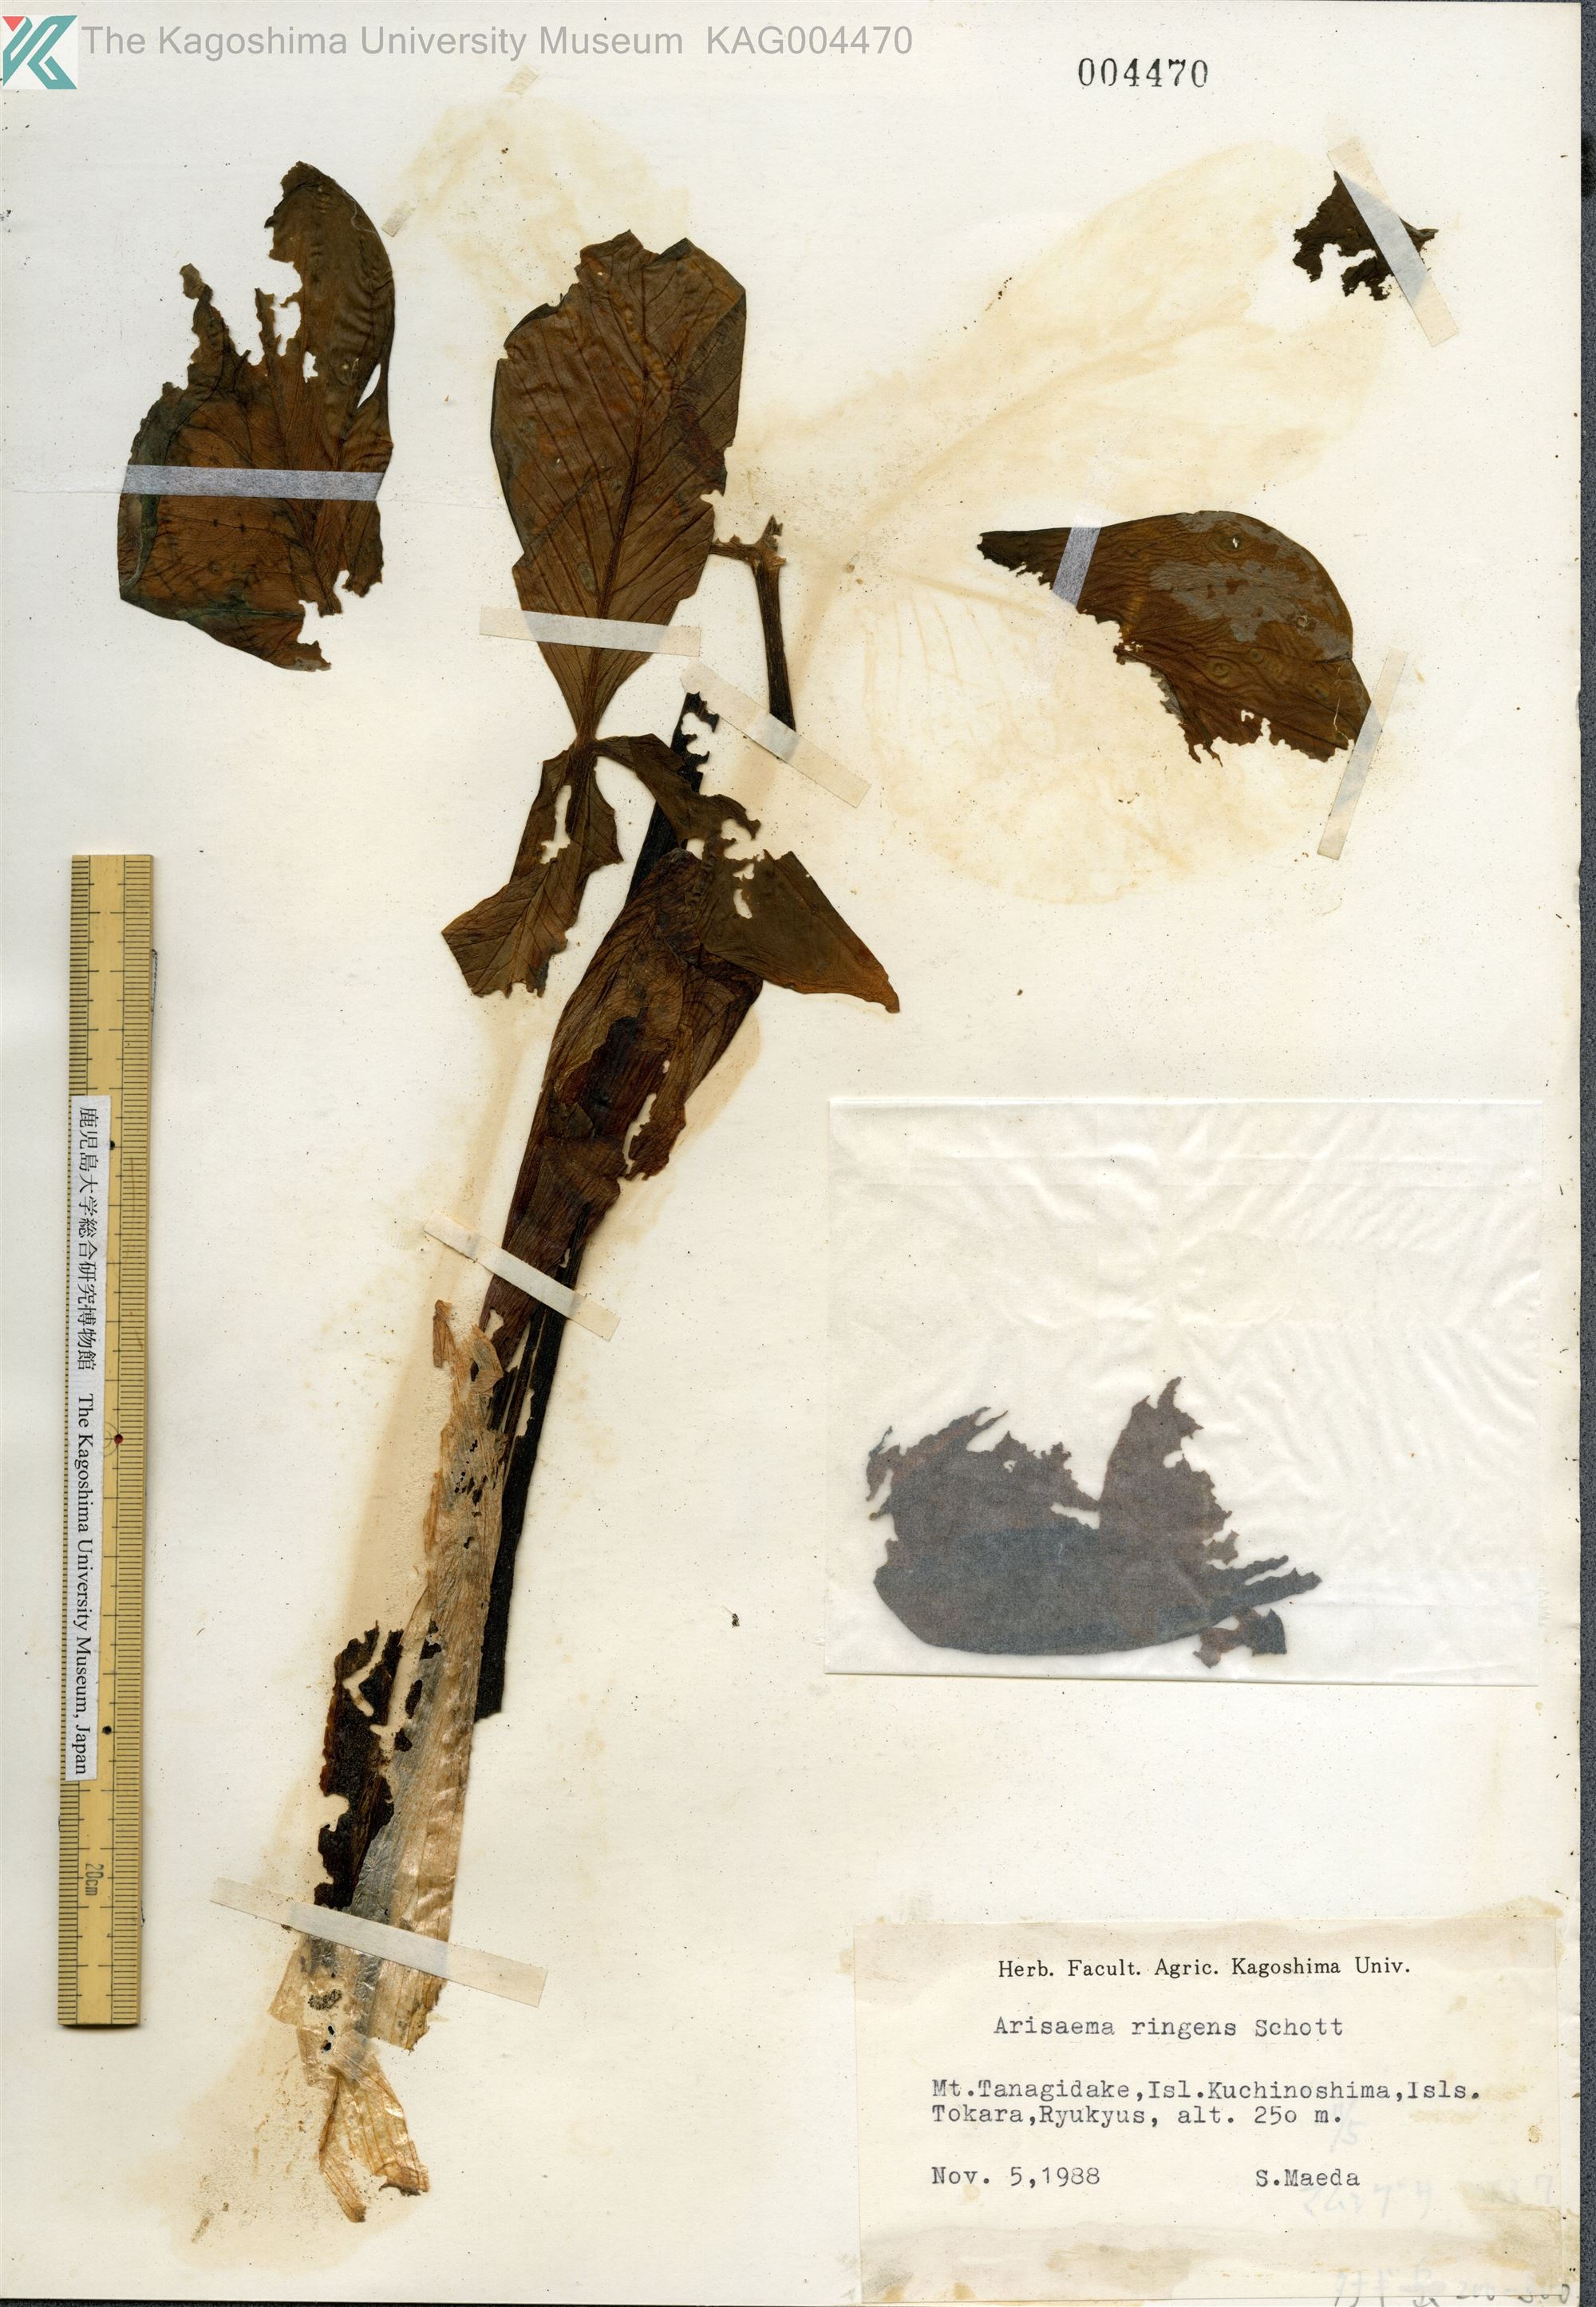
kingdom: Plantae
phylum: Tracheophyta
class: Liliopsida
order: Alismatales
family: Araceae
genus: Arisaema
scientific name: Arisaema ringens
